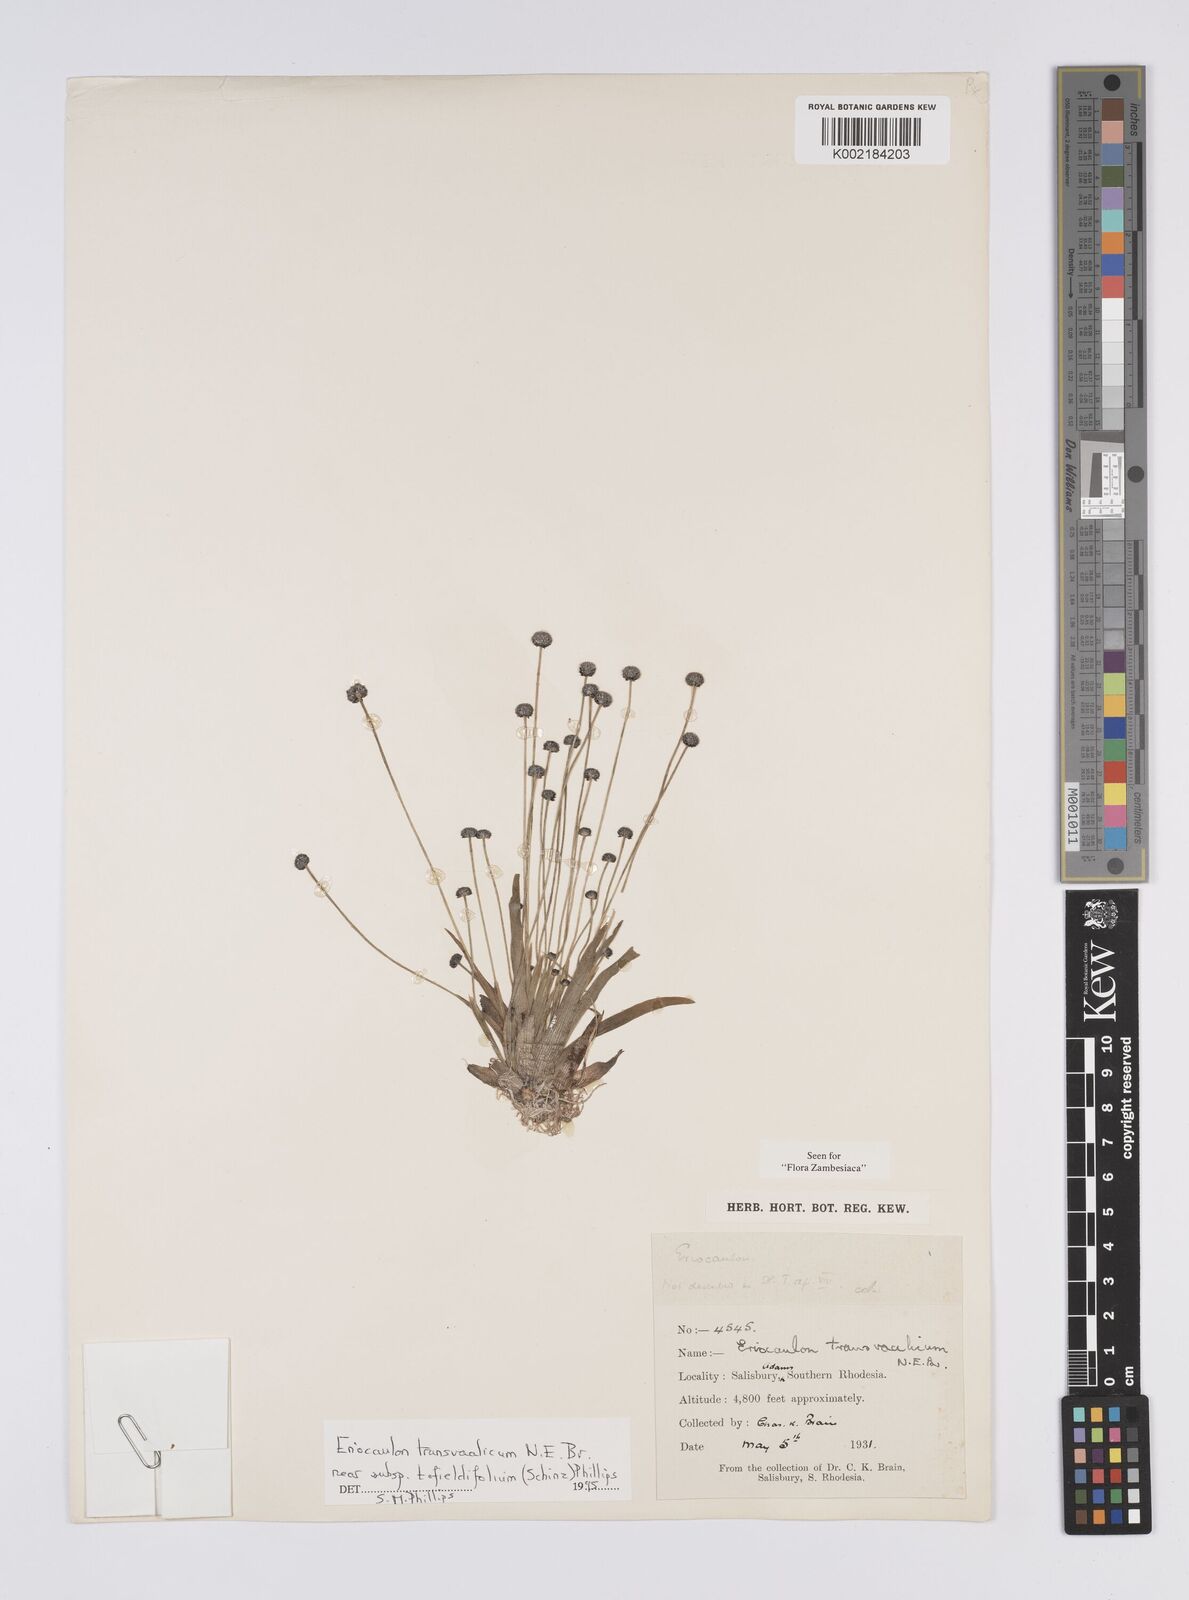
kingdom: Plantae
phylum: Tracheophyta
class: Liliopsida
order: Poales
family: Eriocaulaceae
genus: Eriocaulon
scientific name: Eriocaulon transvaalicum
